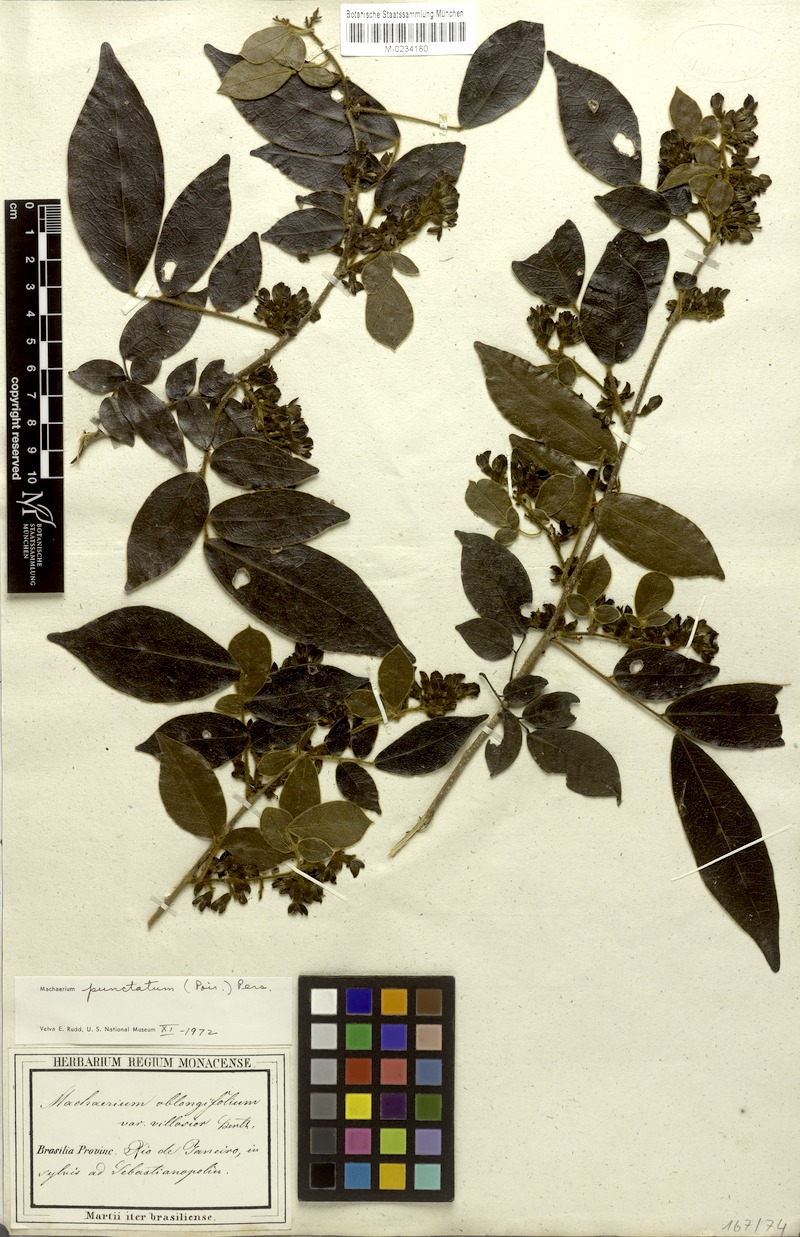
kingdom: Plantae
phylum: Tracheophyta
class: Magnoliopsida
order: Fabales
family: Fabaceae
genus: Machaerium
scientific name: Machaerium punctatum
